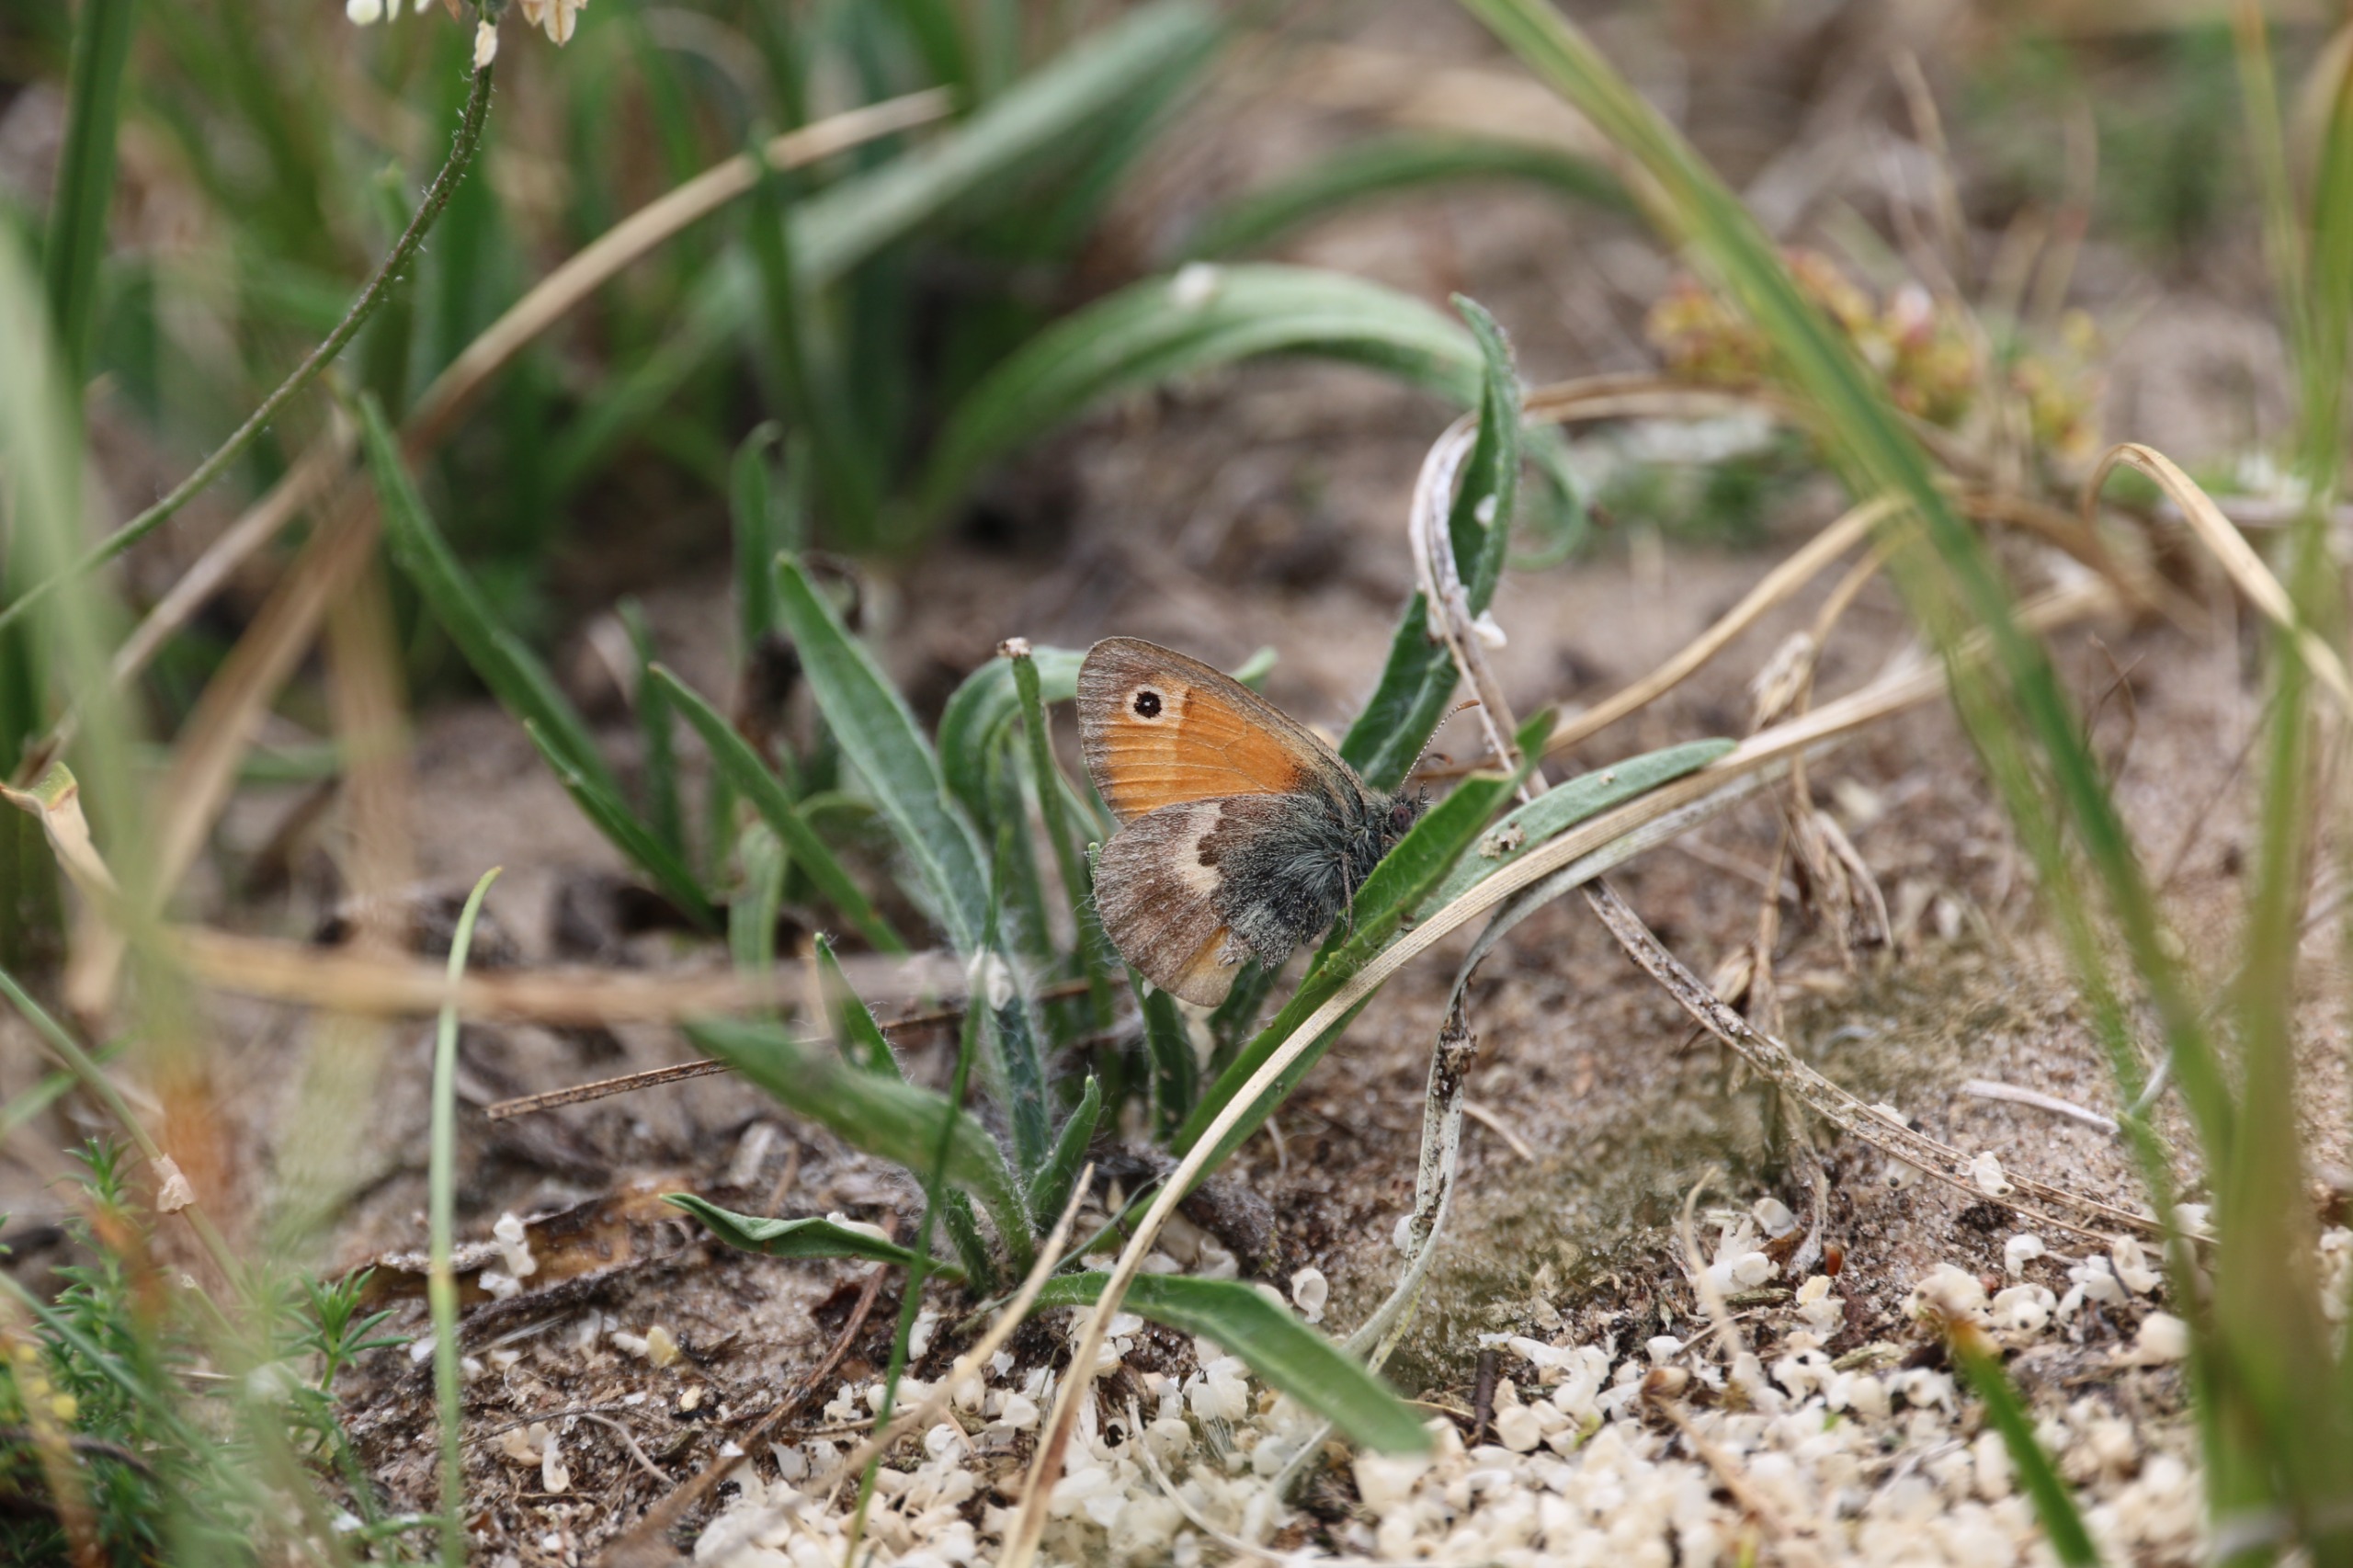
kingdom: Animalia
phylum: Arthropoda
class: Insecta
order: Lepidoptera
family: Nymphalidae
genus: Coenonympha
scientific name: Coenonympha pamphilus
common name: Okkergul randøje
